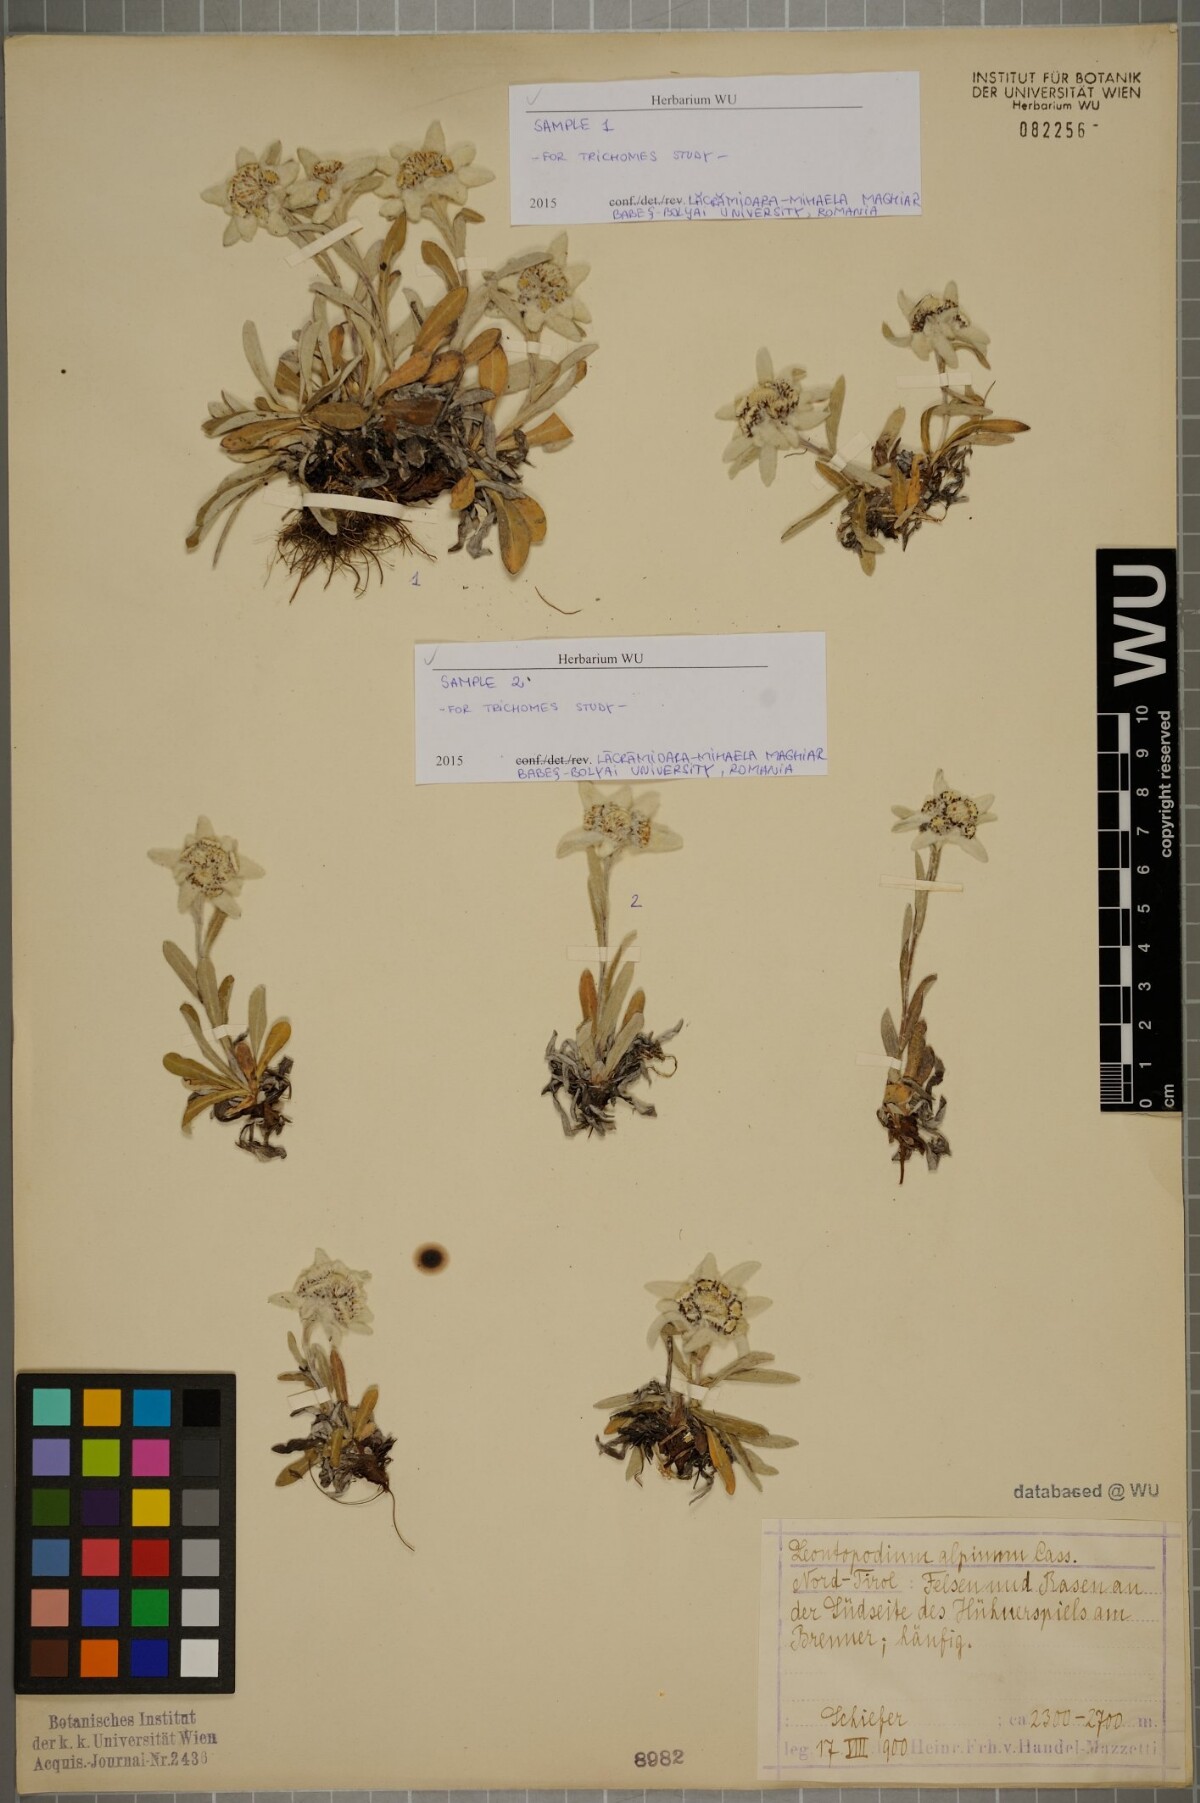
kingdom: Plantae
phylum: Tracheophyta
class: Magnoliopsida
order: Asterales
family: Asteraceae
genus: Leontopodium
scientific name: Leontopodium nivale
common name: Edelweiss
